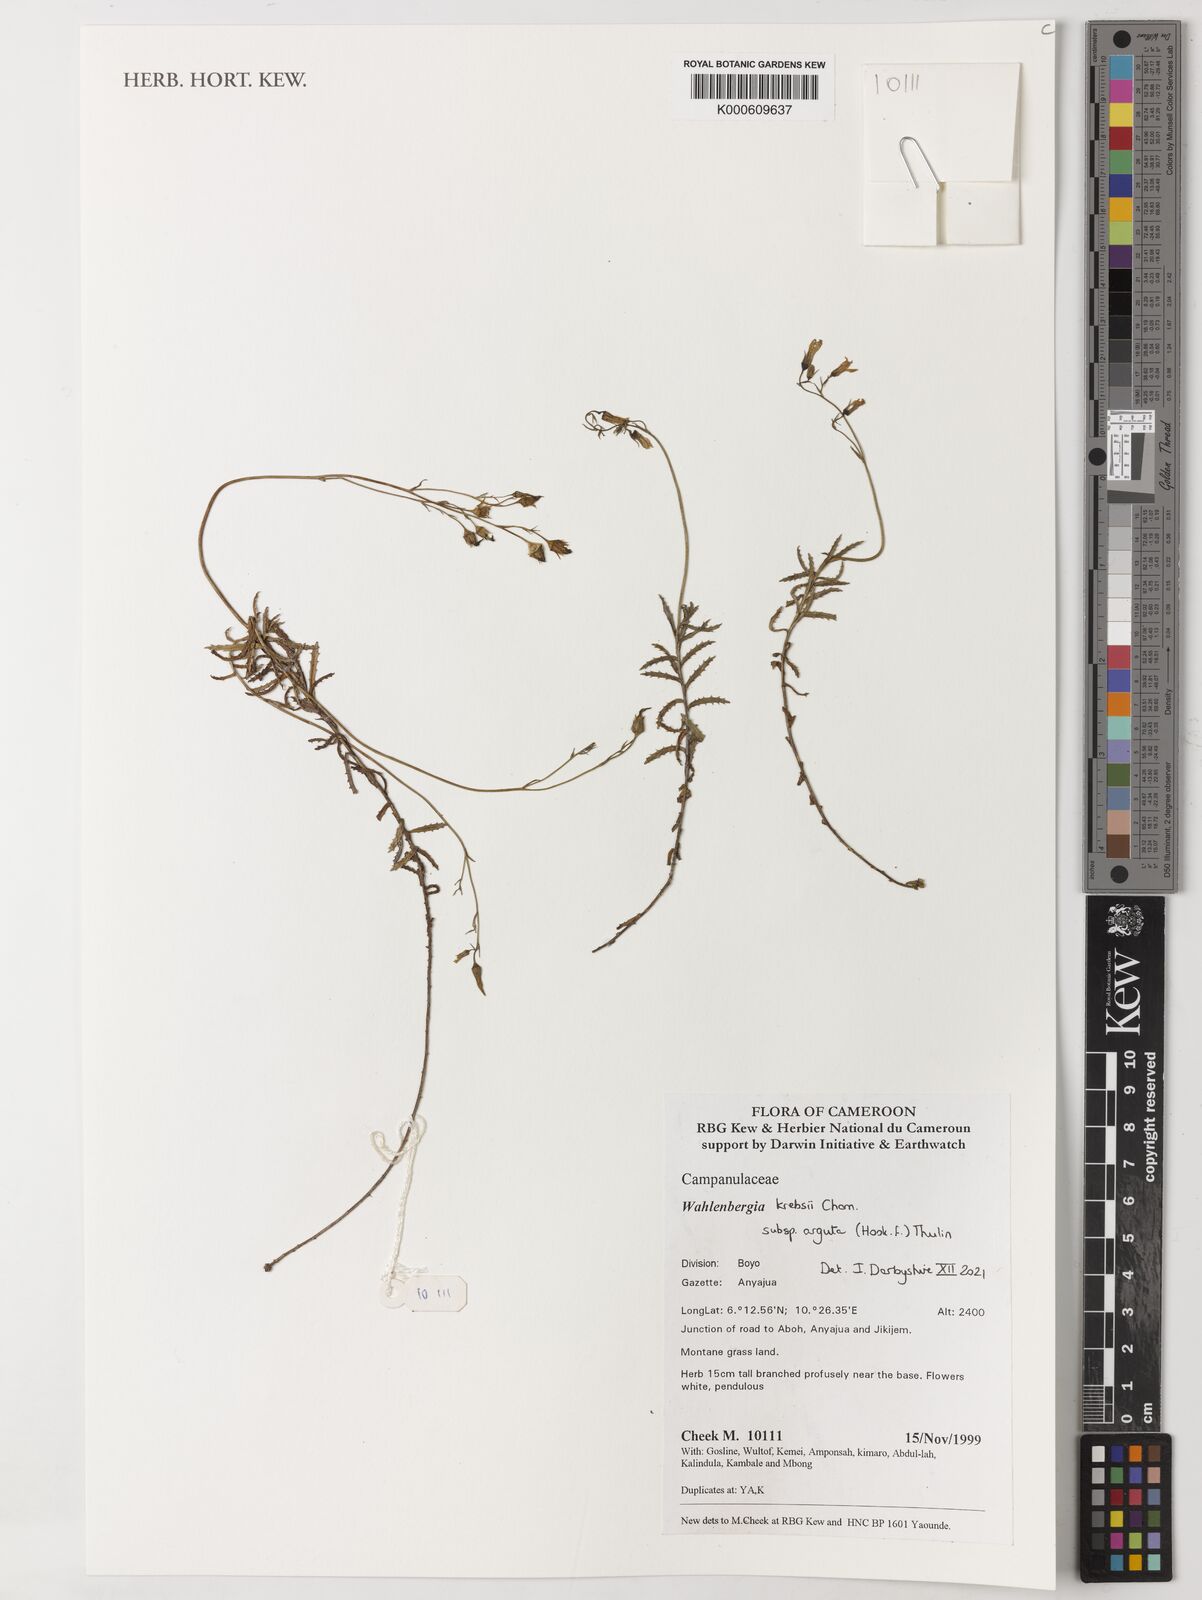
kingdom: Plantae
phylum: Tracheophyta
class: Magnoliopsida
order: Asterales
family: Campanulaceae
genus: Wahlenbergia
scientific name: Wahlenbergia krebsii
